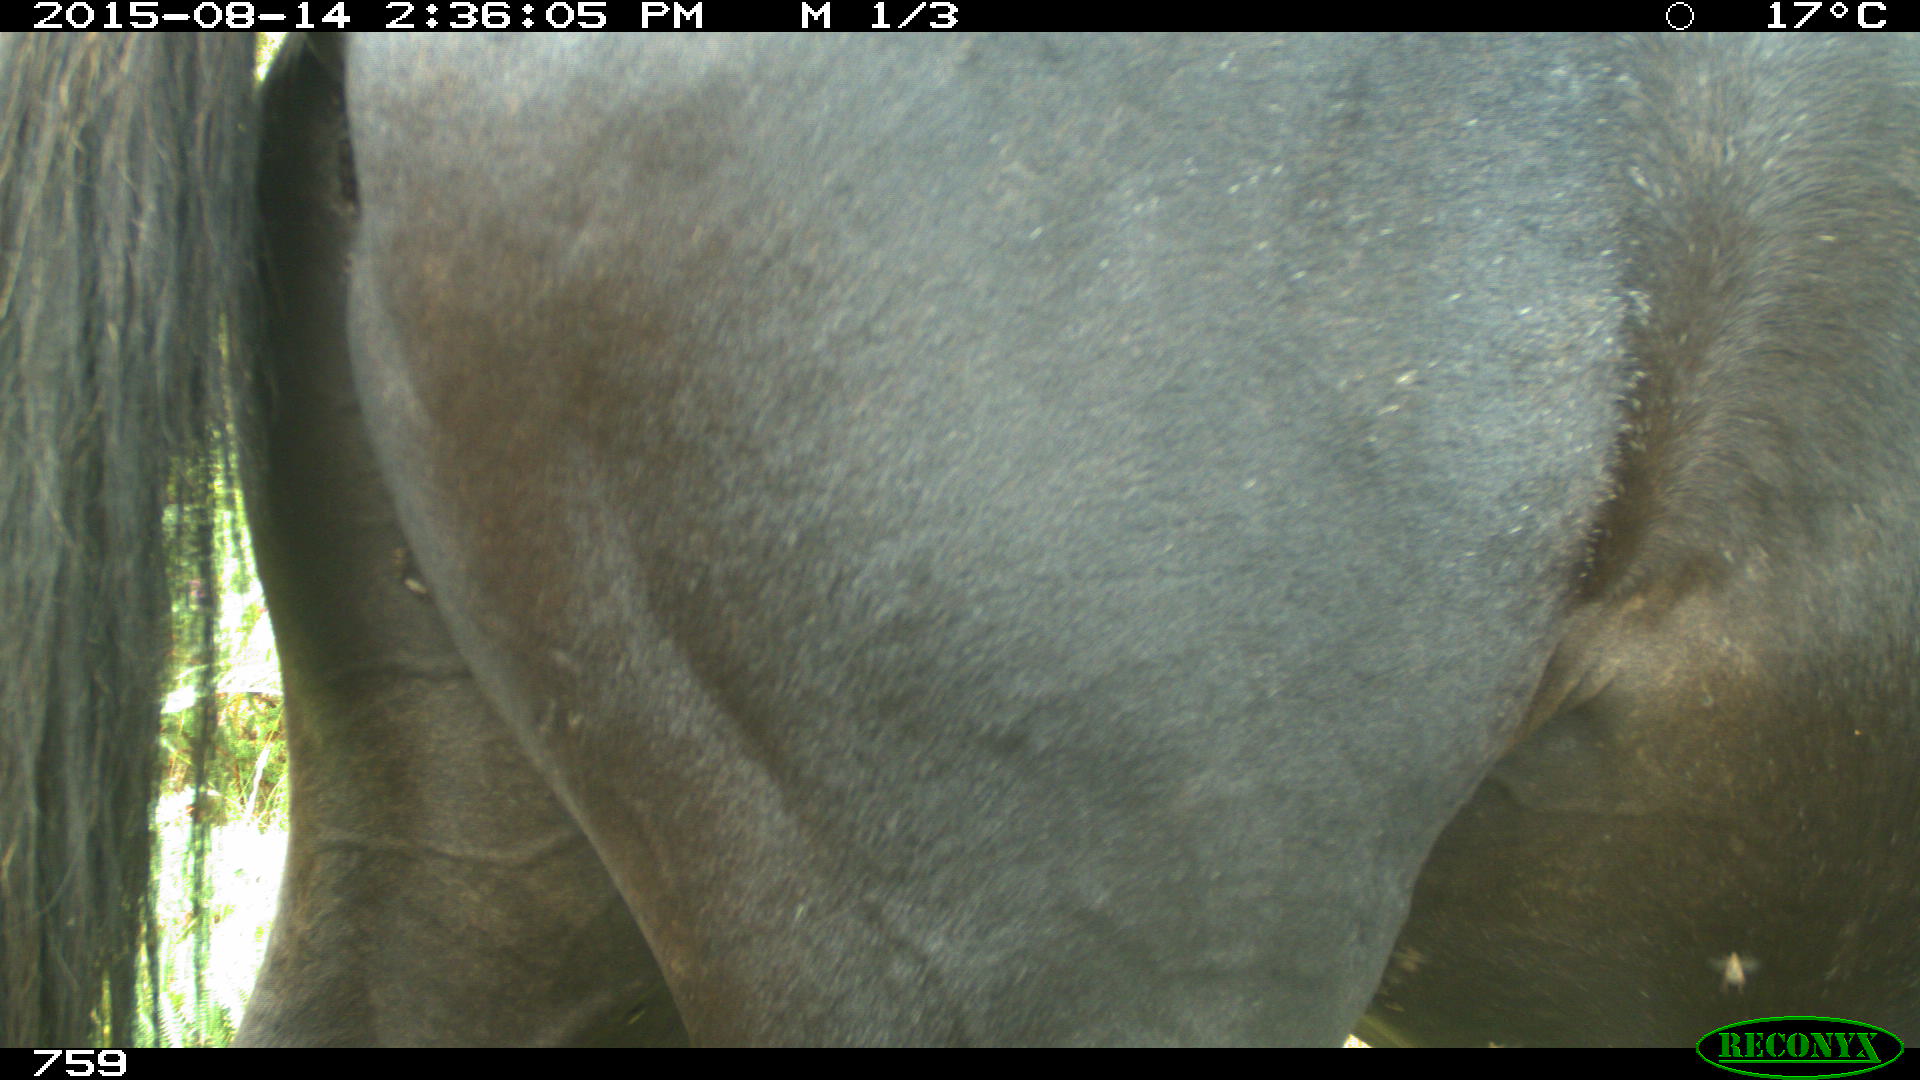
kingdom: Animalia
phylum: Chordata
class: Mammalia
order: Perissodactyla
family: Equidae
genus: Equus
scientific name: Equus caballus
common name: Horse
